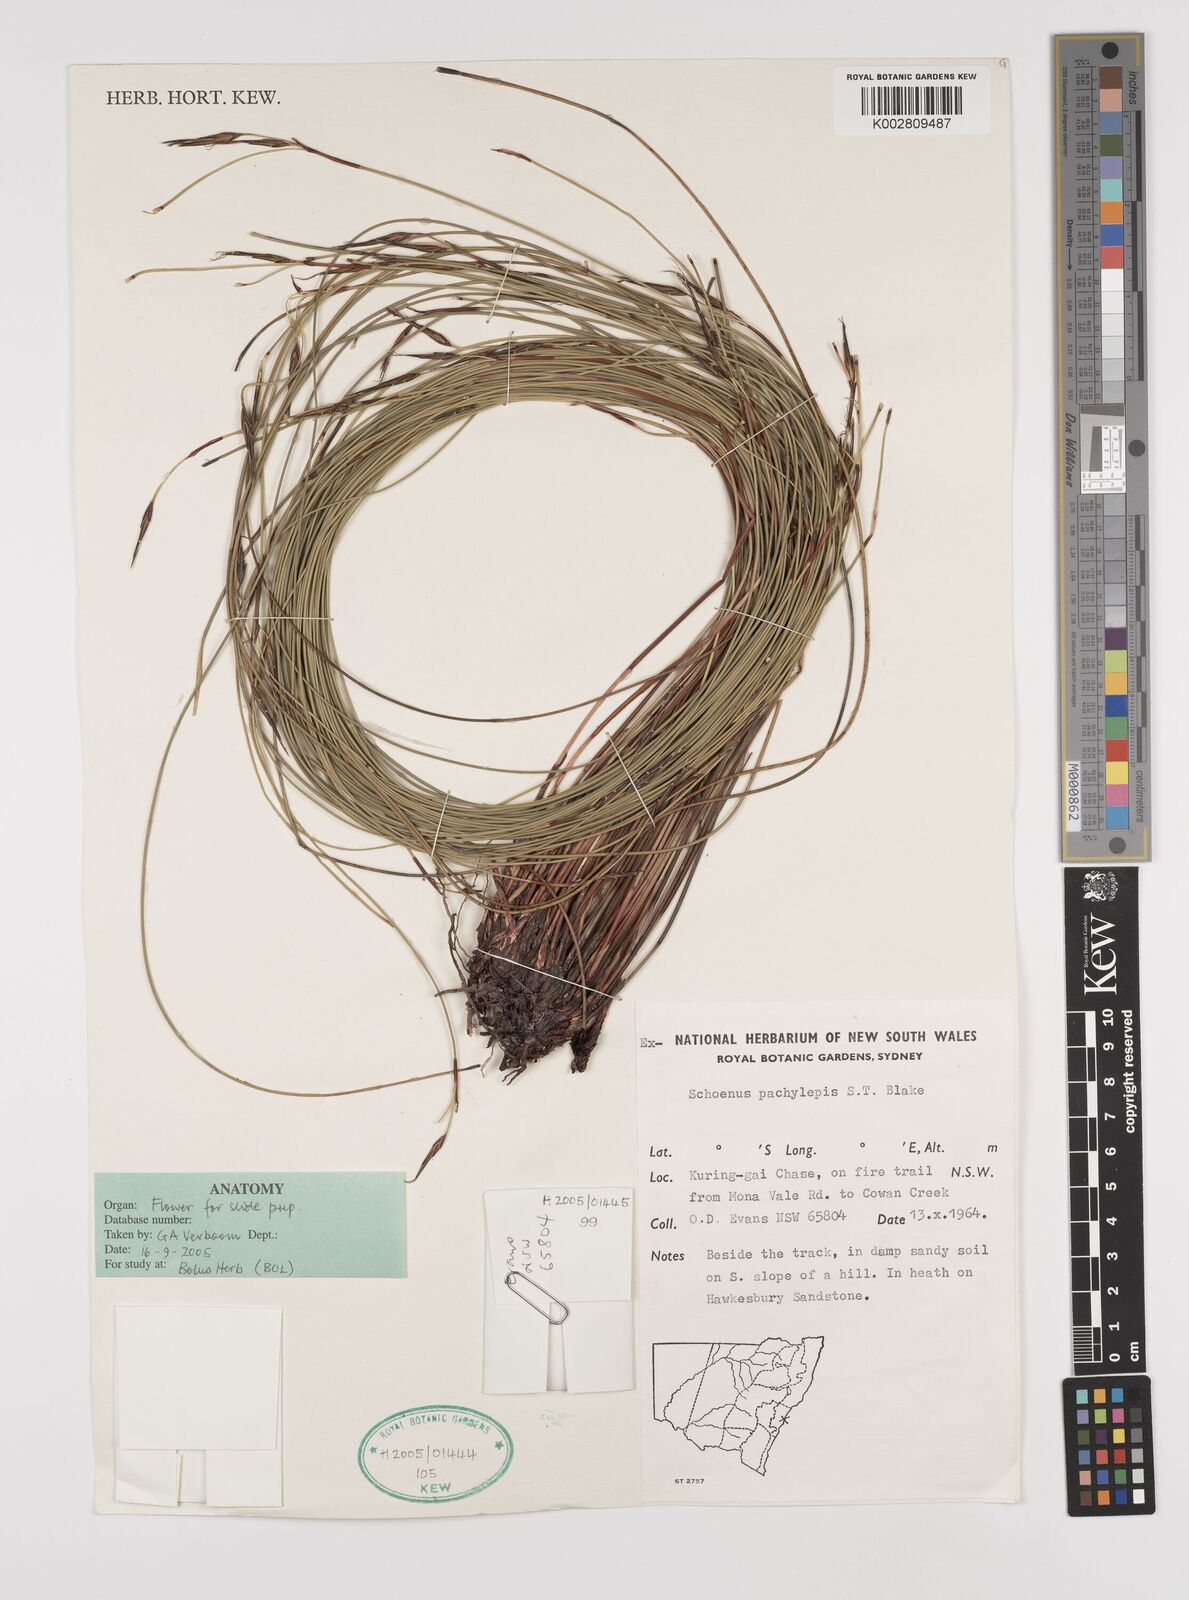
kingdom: Plantae
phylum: Tracheophyta
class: Liliopsida
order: Poales
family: Cyperaceae
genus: Schoenus
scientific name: Schoenus lepidosperma
